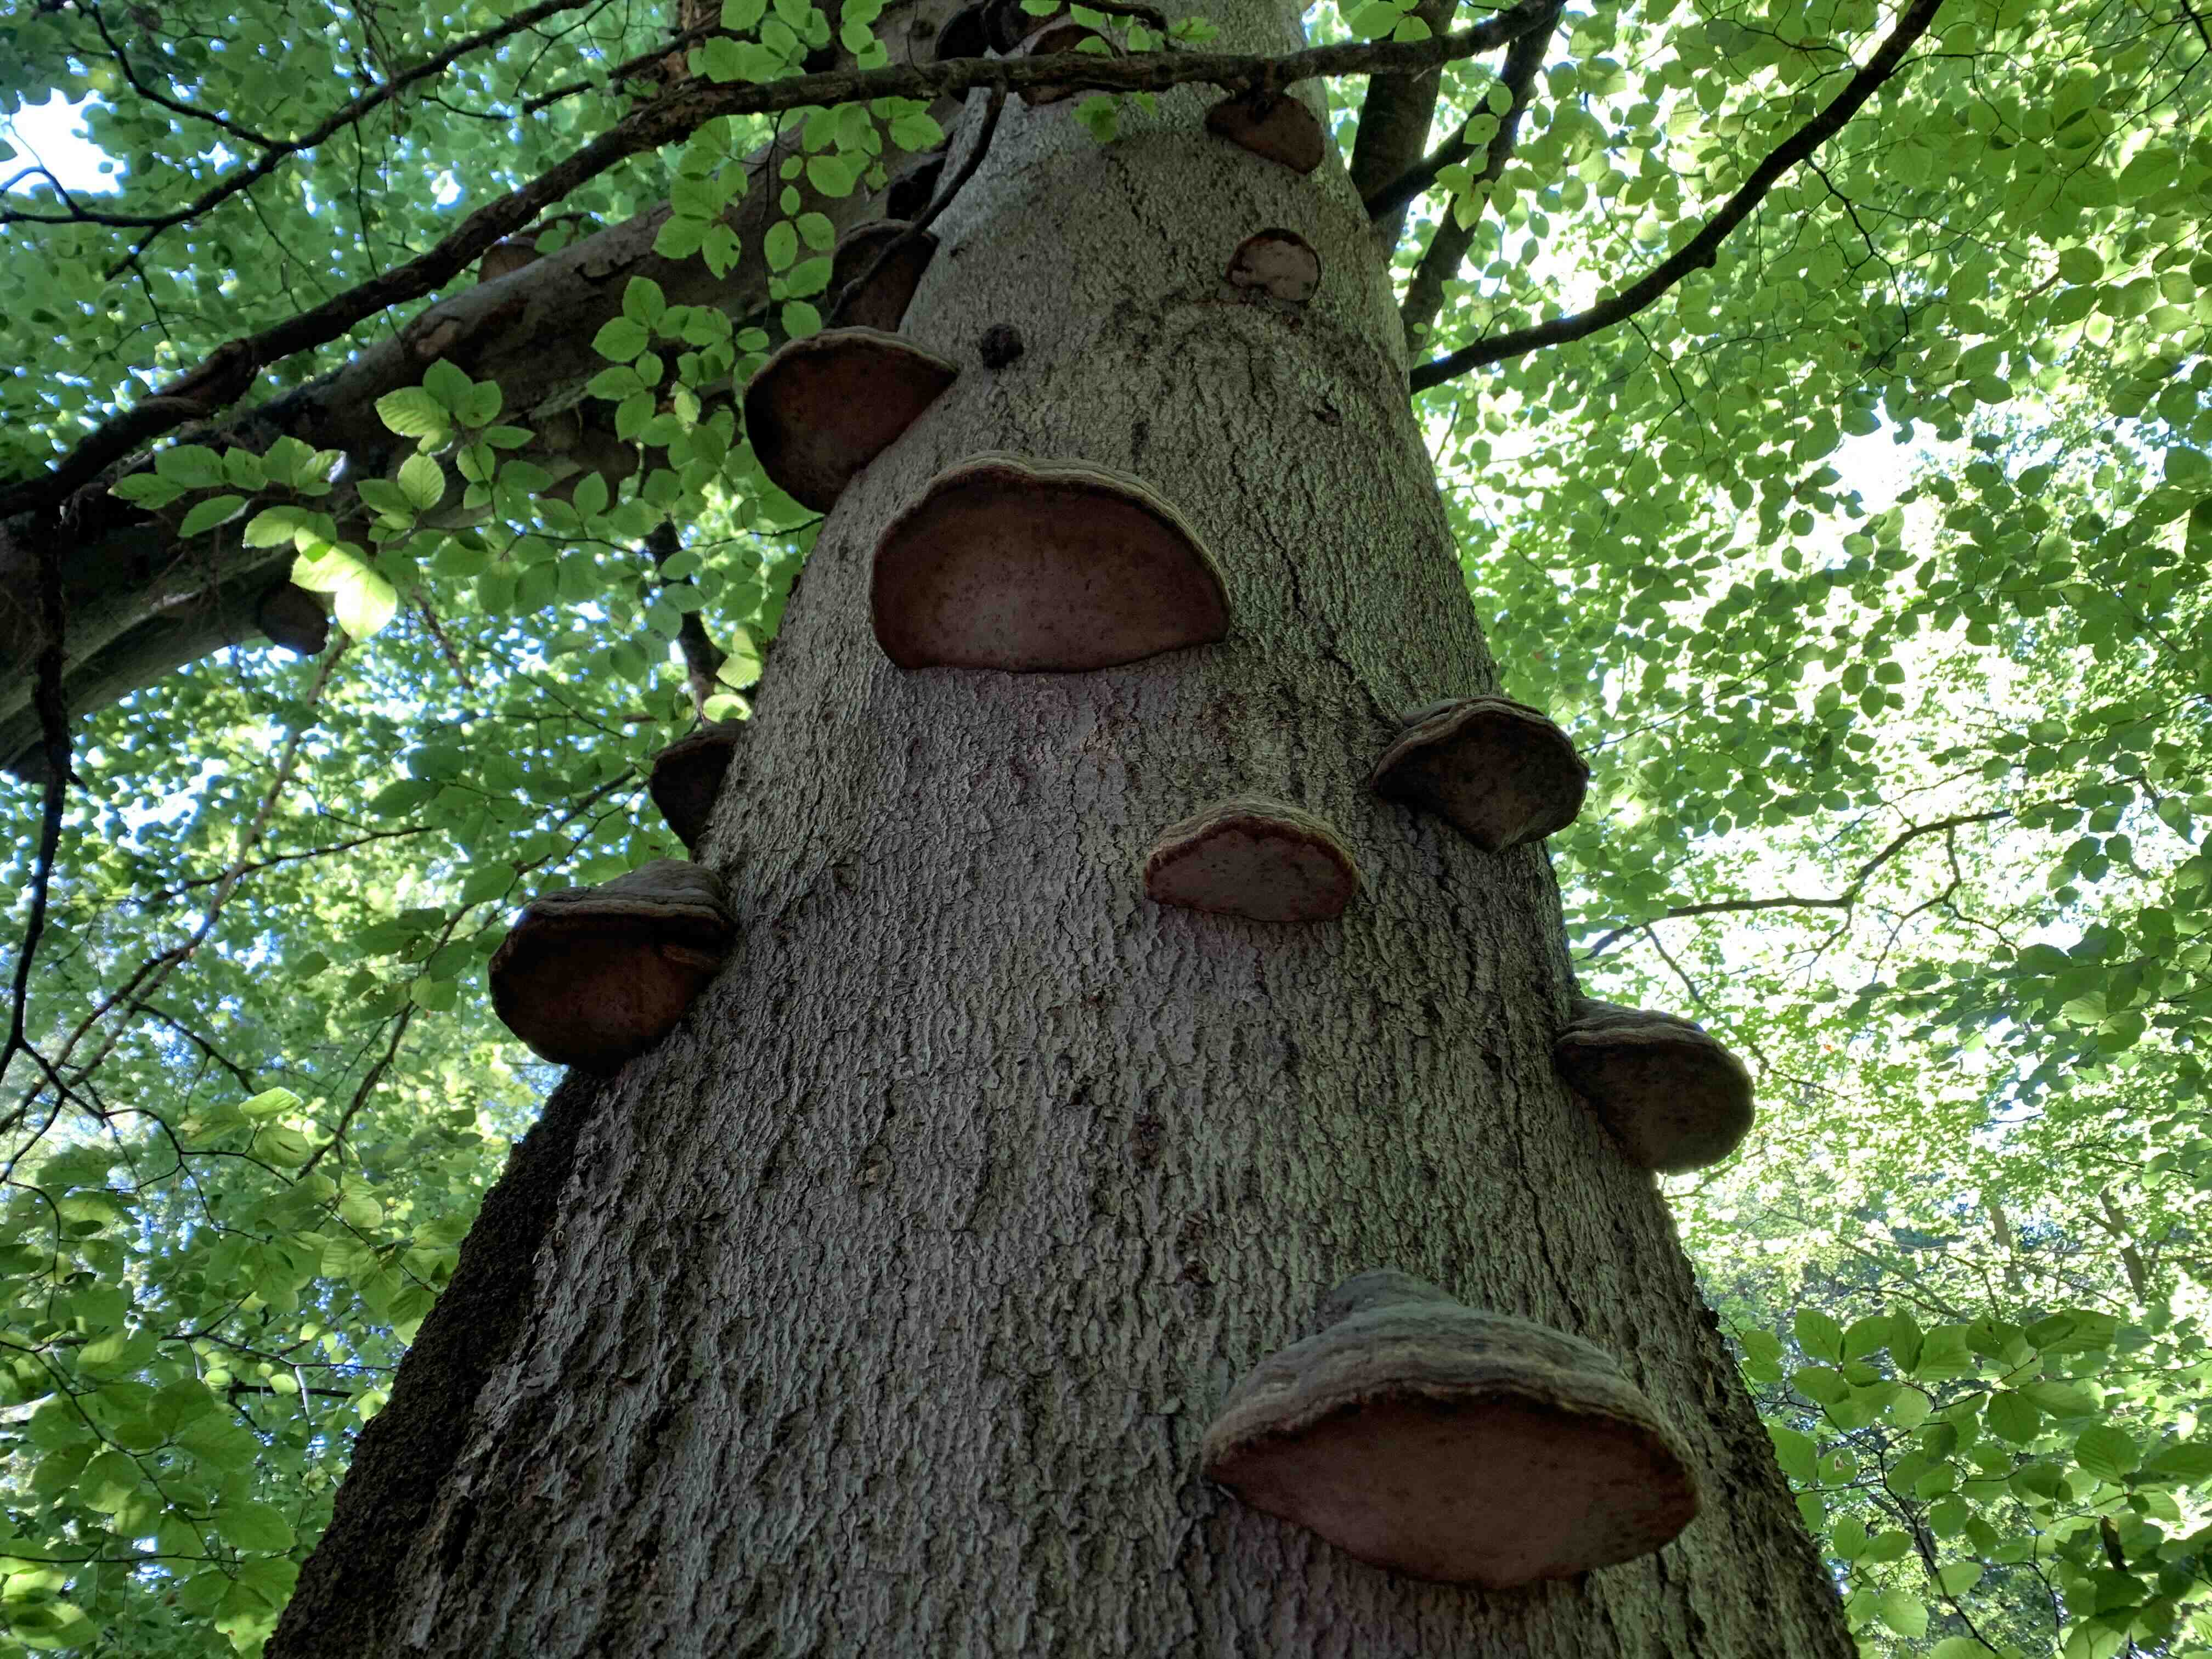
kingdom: Fungi
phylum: Basidiomycota
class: Agaricomycetes
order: Polyporales
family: Polyporaceae
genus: Fomes
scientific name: Fomes fomentarius
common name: tøndersvamp
